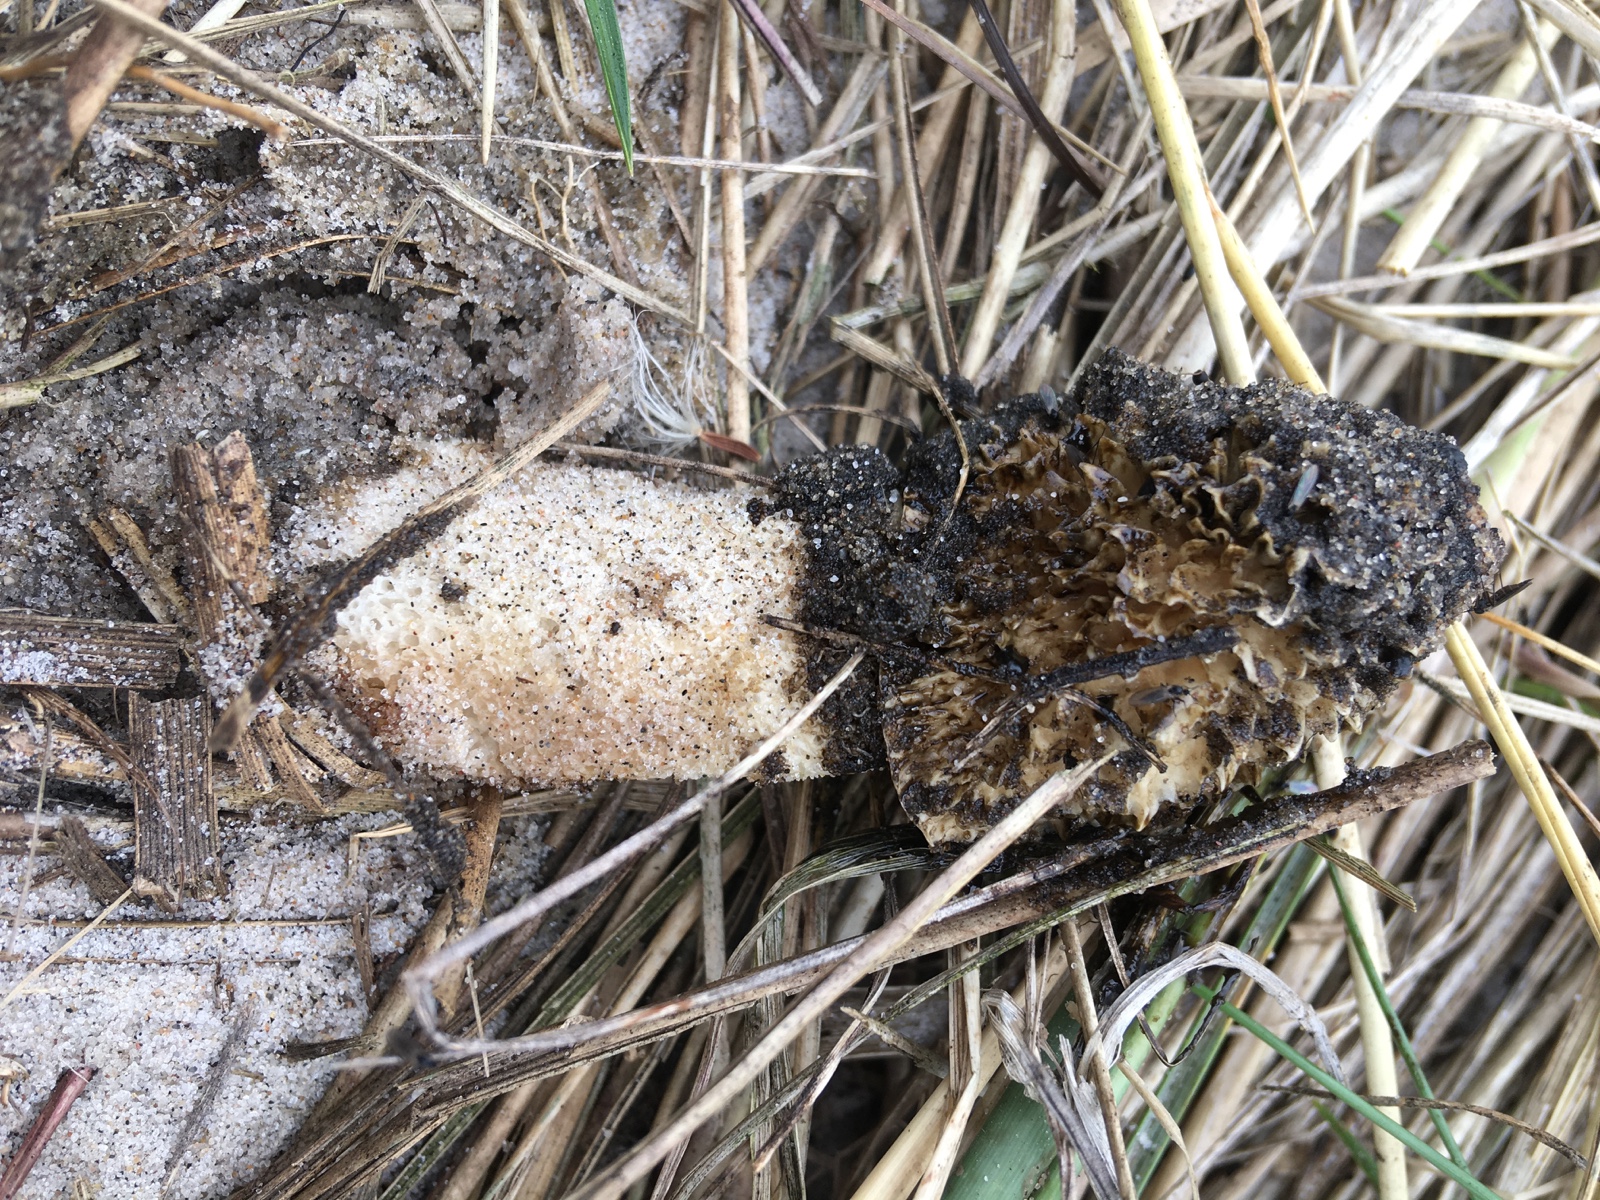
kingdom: Fungi
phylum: Basidiomycota
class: Agaricomycetes
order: Phallales
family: Phallaceae
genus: Phallus
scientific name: Phallus impudicus
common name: almindelig stinksvamp
